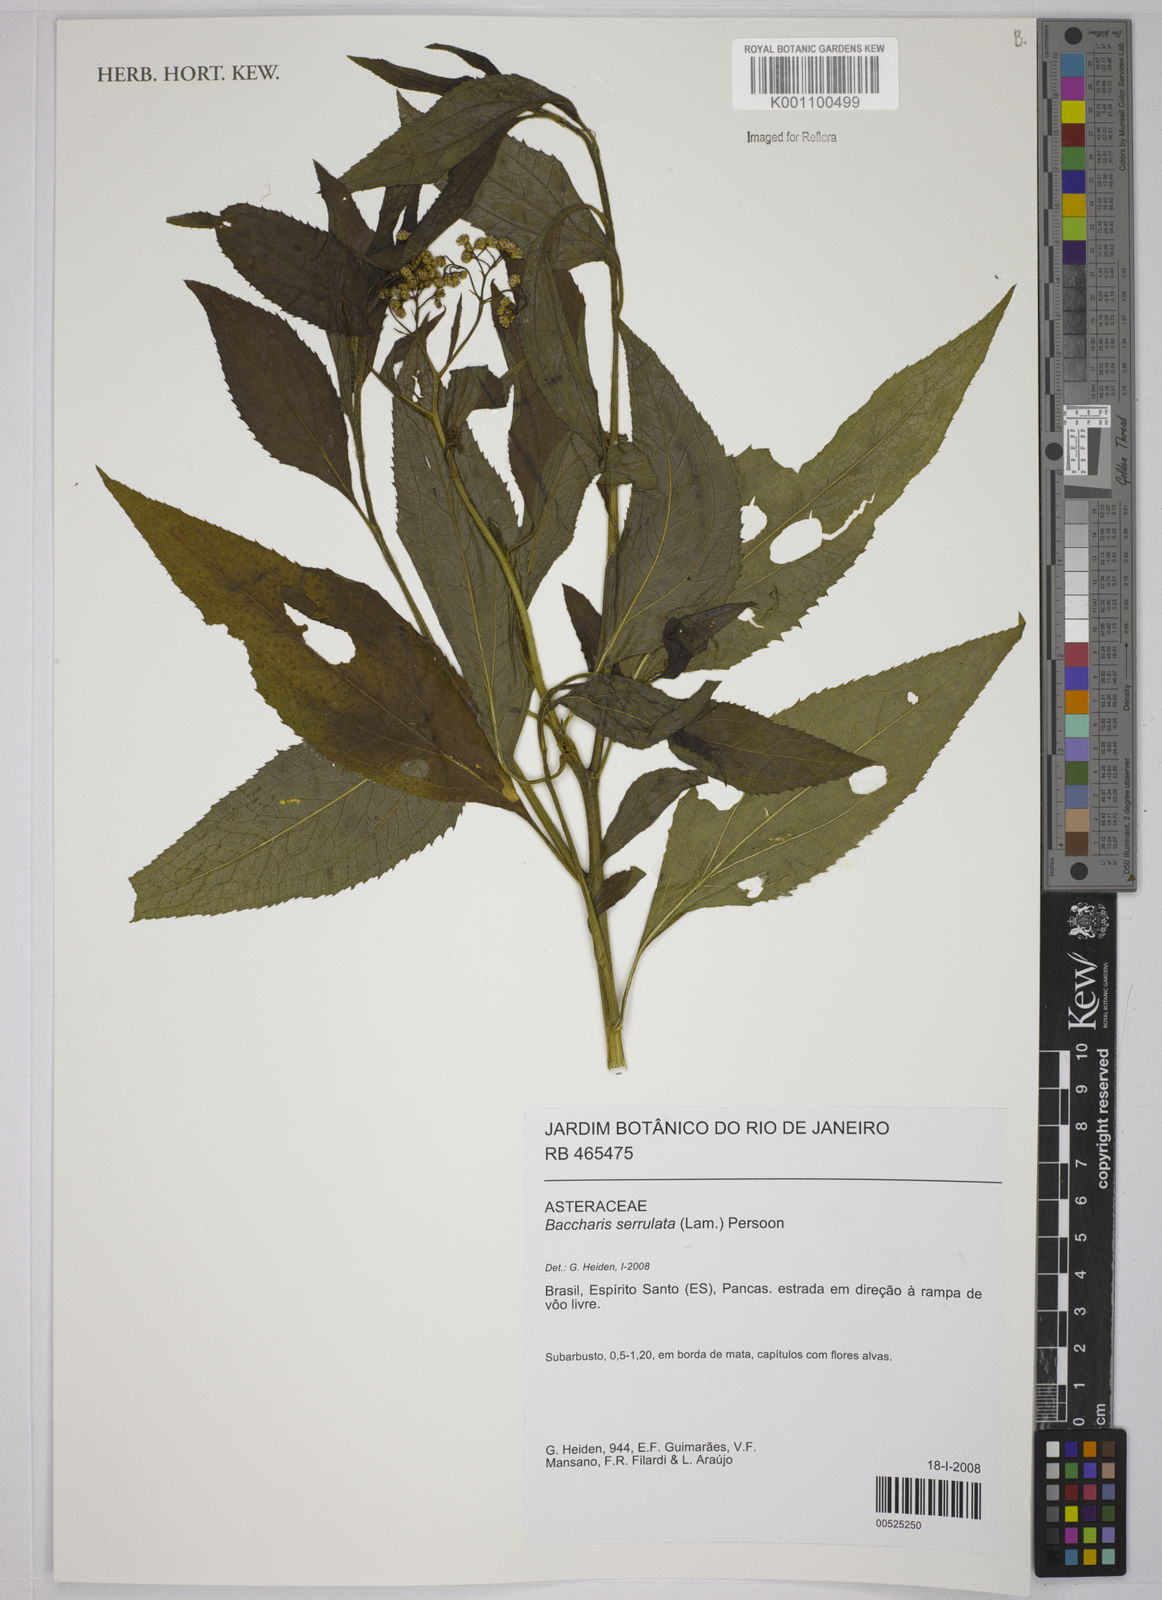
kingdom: Plantae
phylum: Tracheophyta
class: Magnoliopsida
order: Asterales
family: Asteraceae
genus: Baccharis
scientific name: Baccharis serrulata
